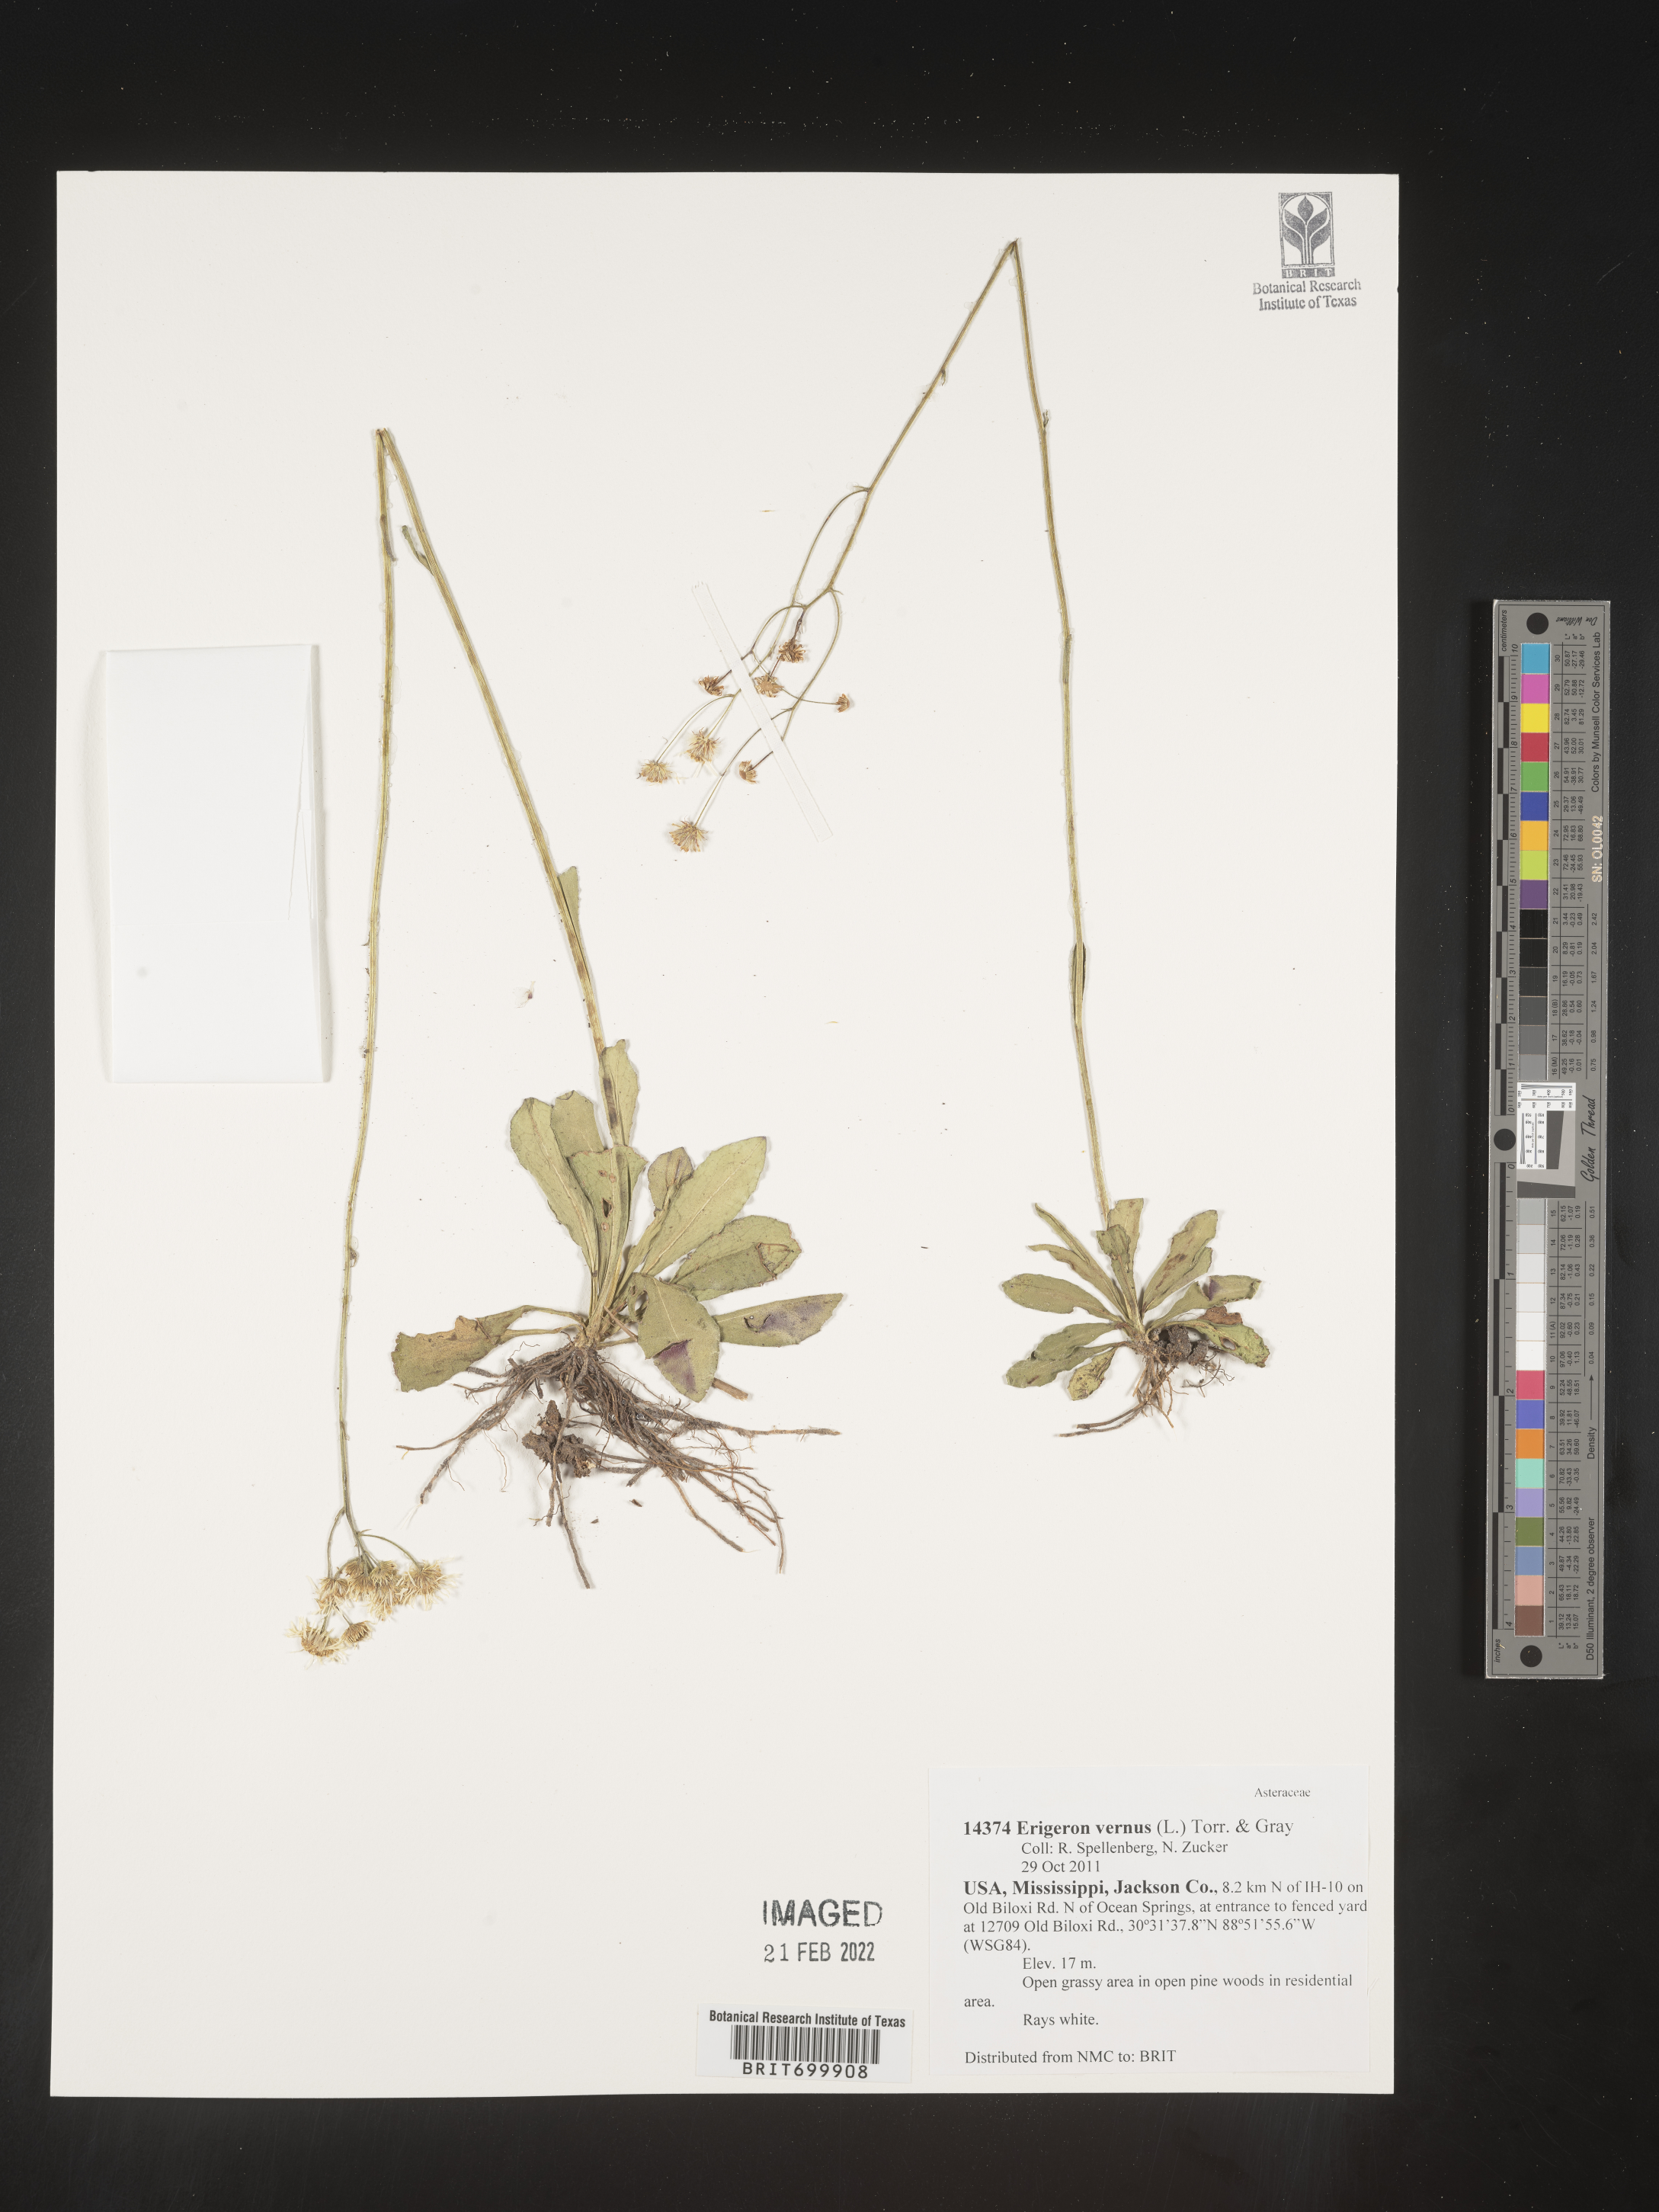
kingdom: Plantae
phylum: Tracheophyta
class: Magnoliopsida
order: Asterales
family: Asteraceae
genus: Erigeron
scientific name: Erigeron vernus
